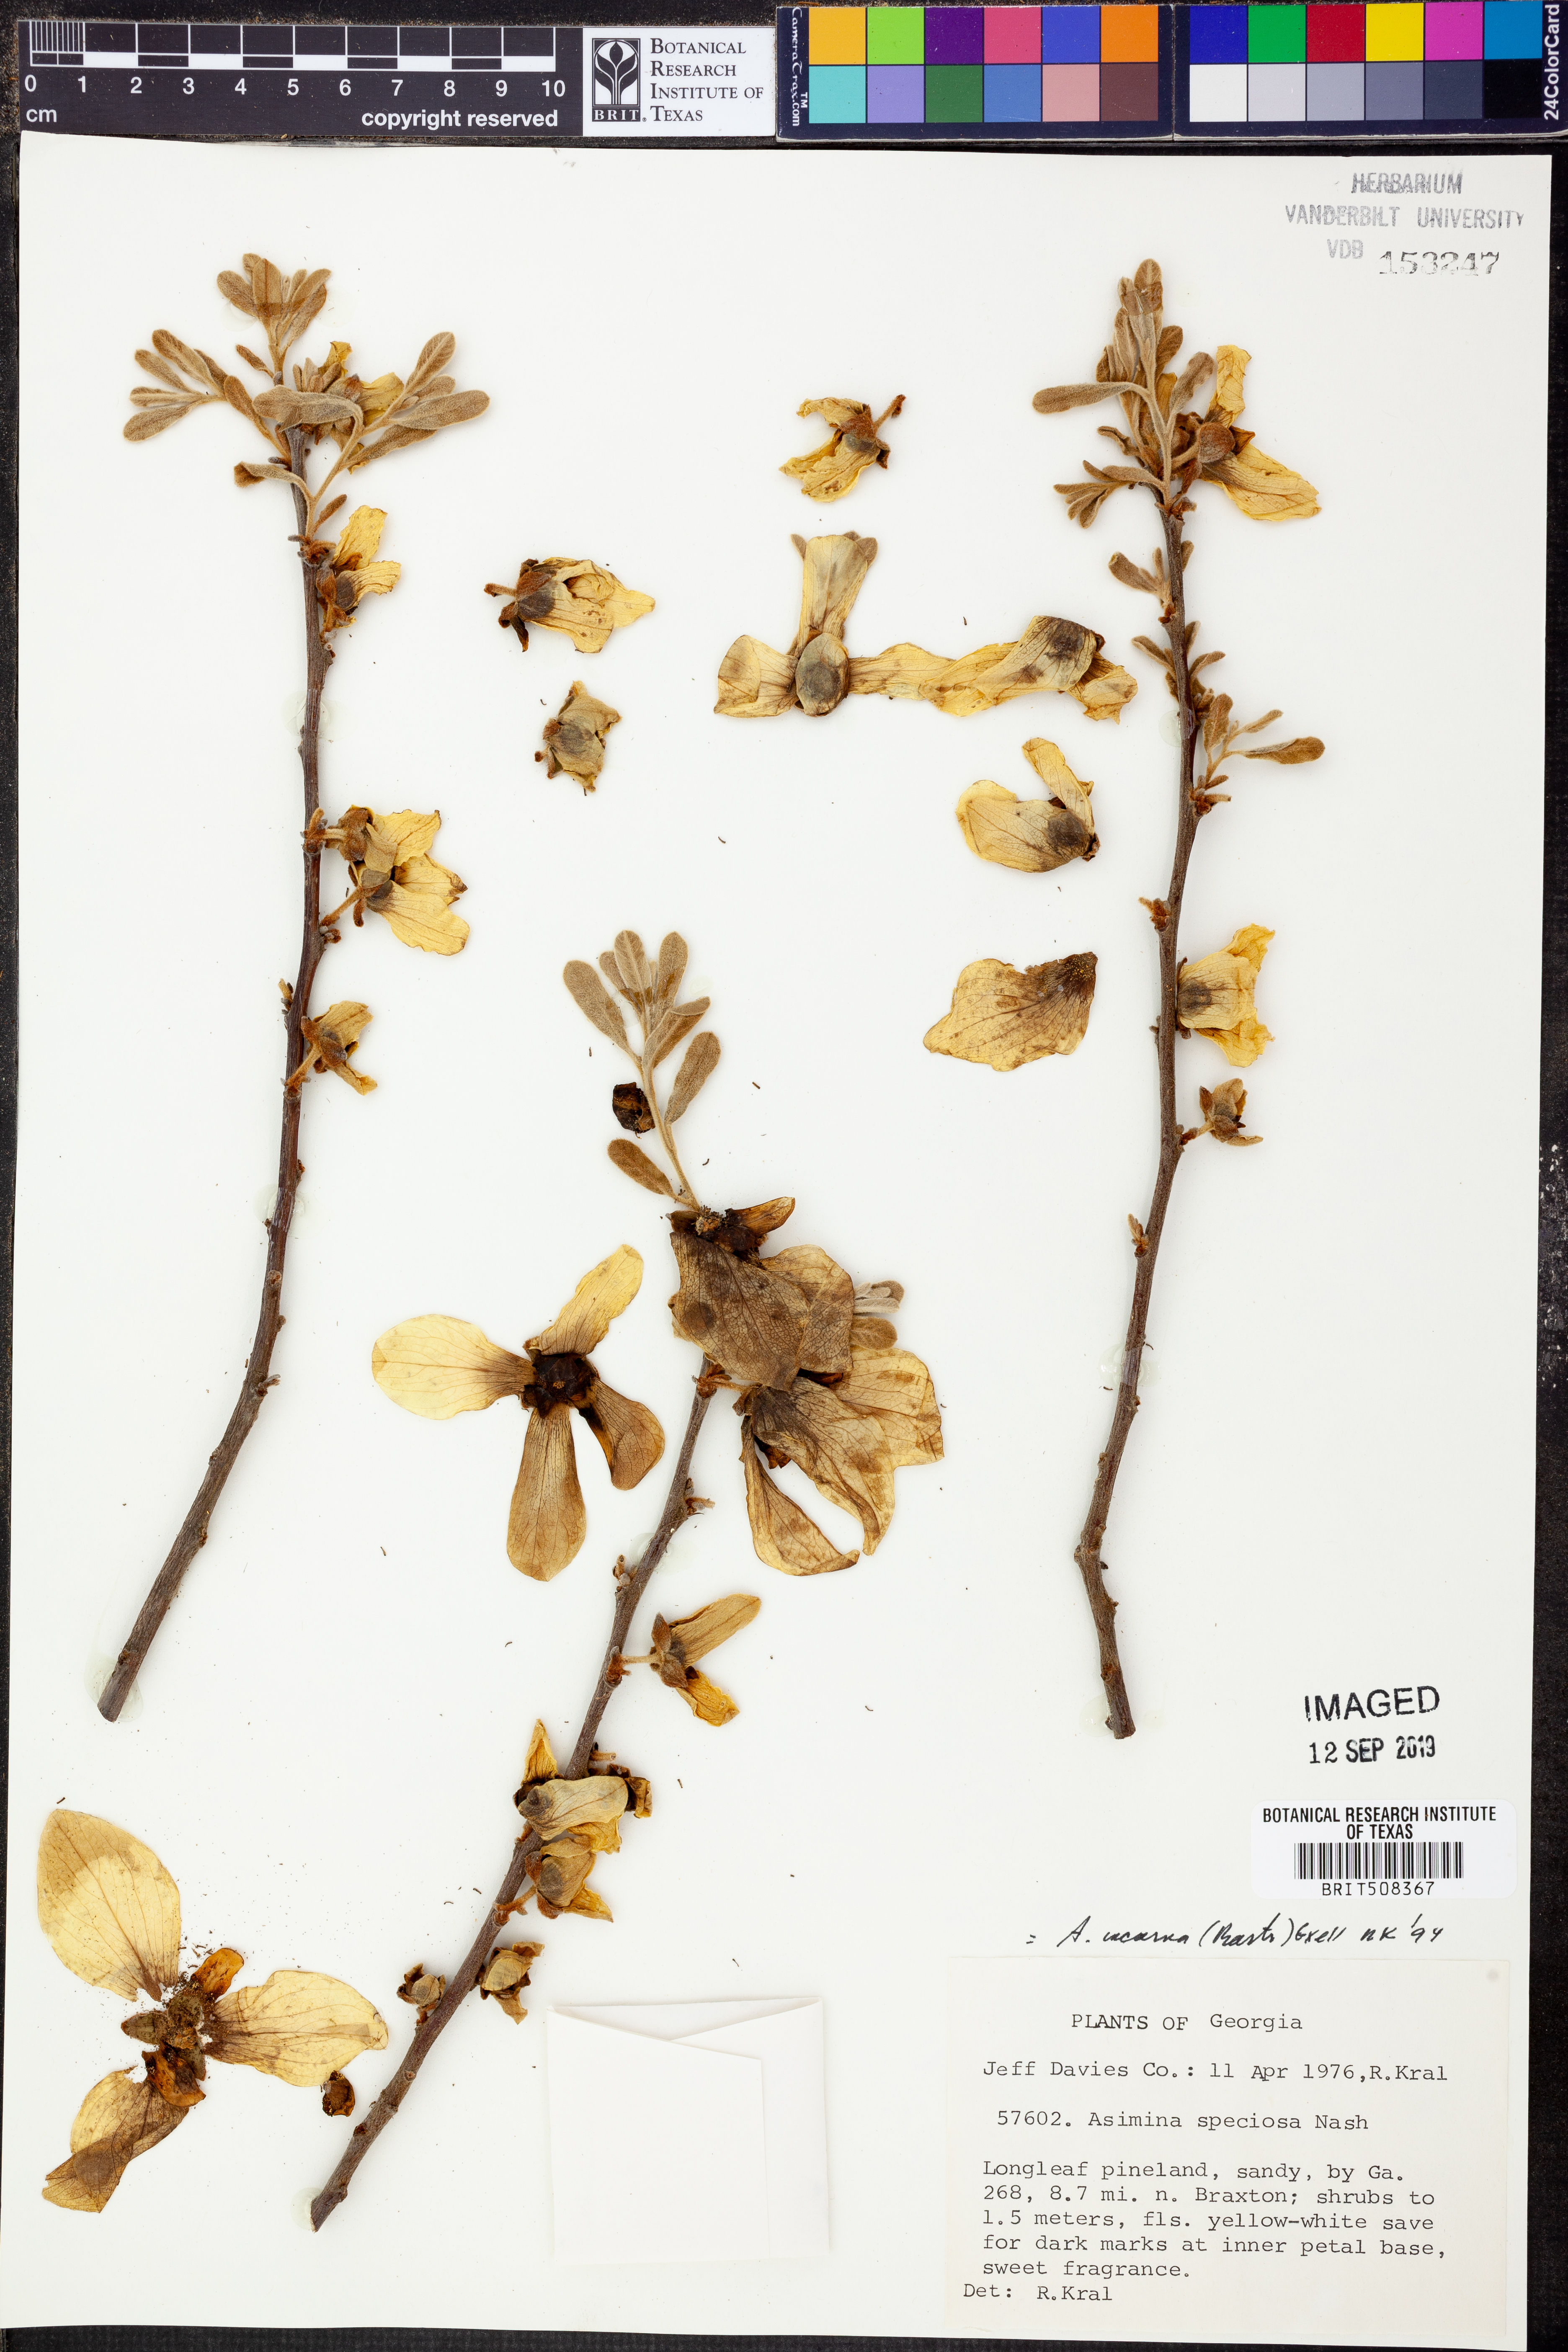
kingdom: Plantae
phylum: Tracheophyta
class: Magnoliopsida
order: Magnoliales
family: Annonaceae
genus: Asimina
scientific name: Asimina speciosa
